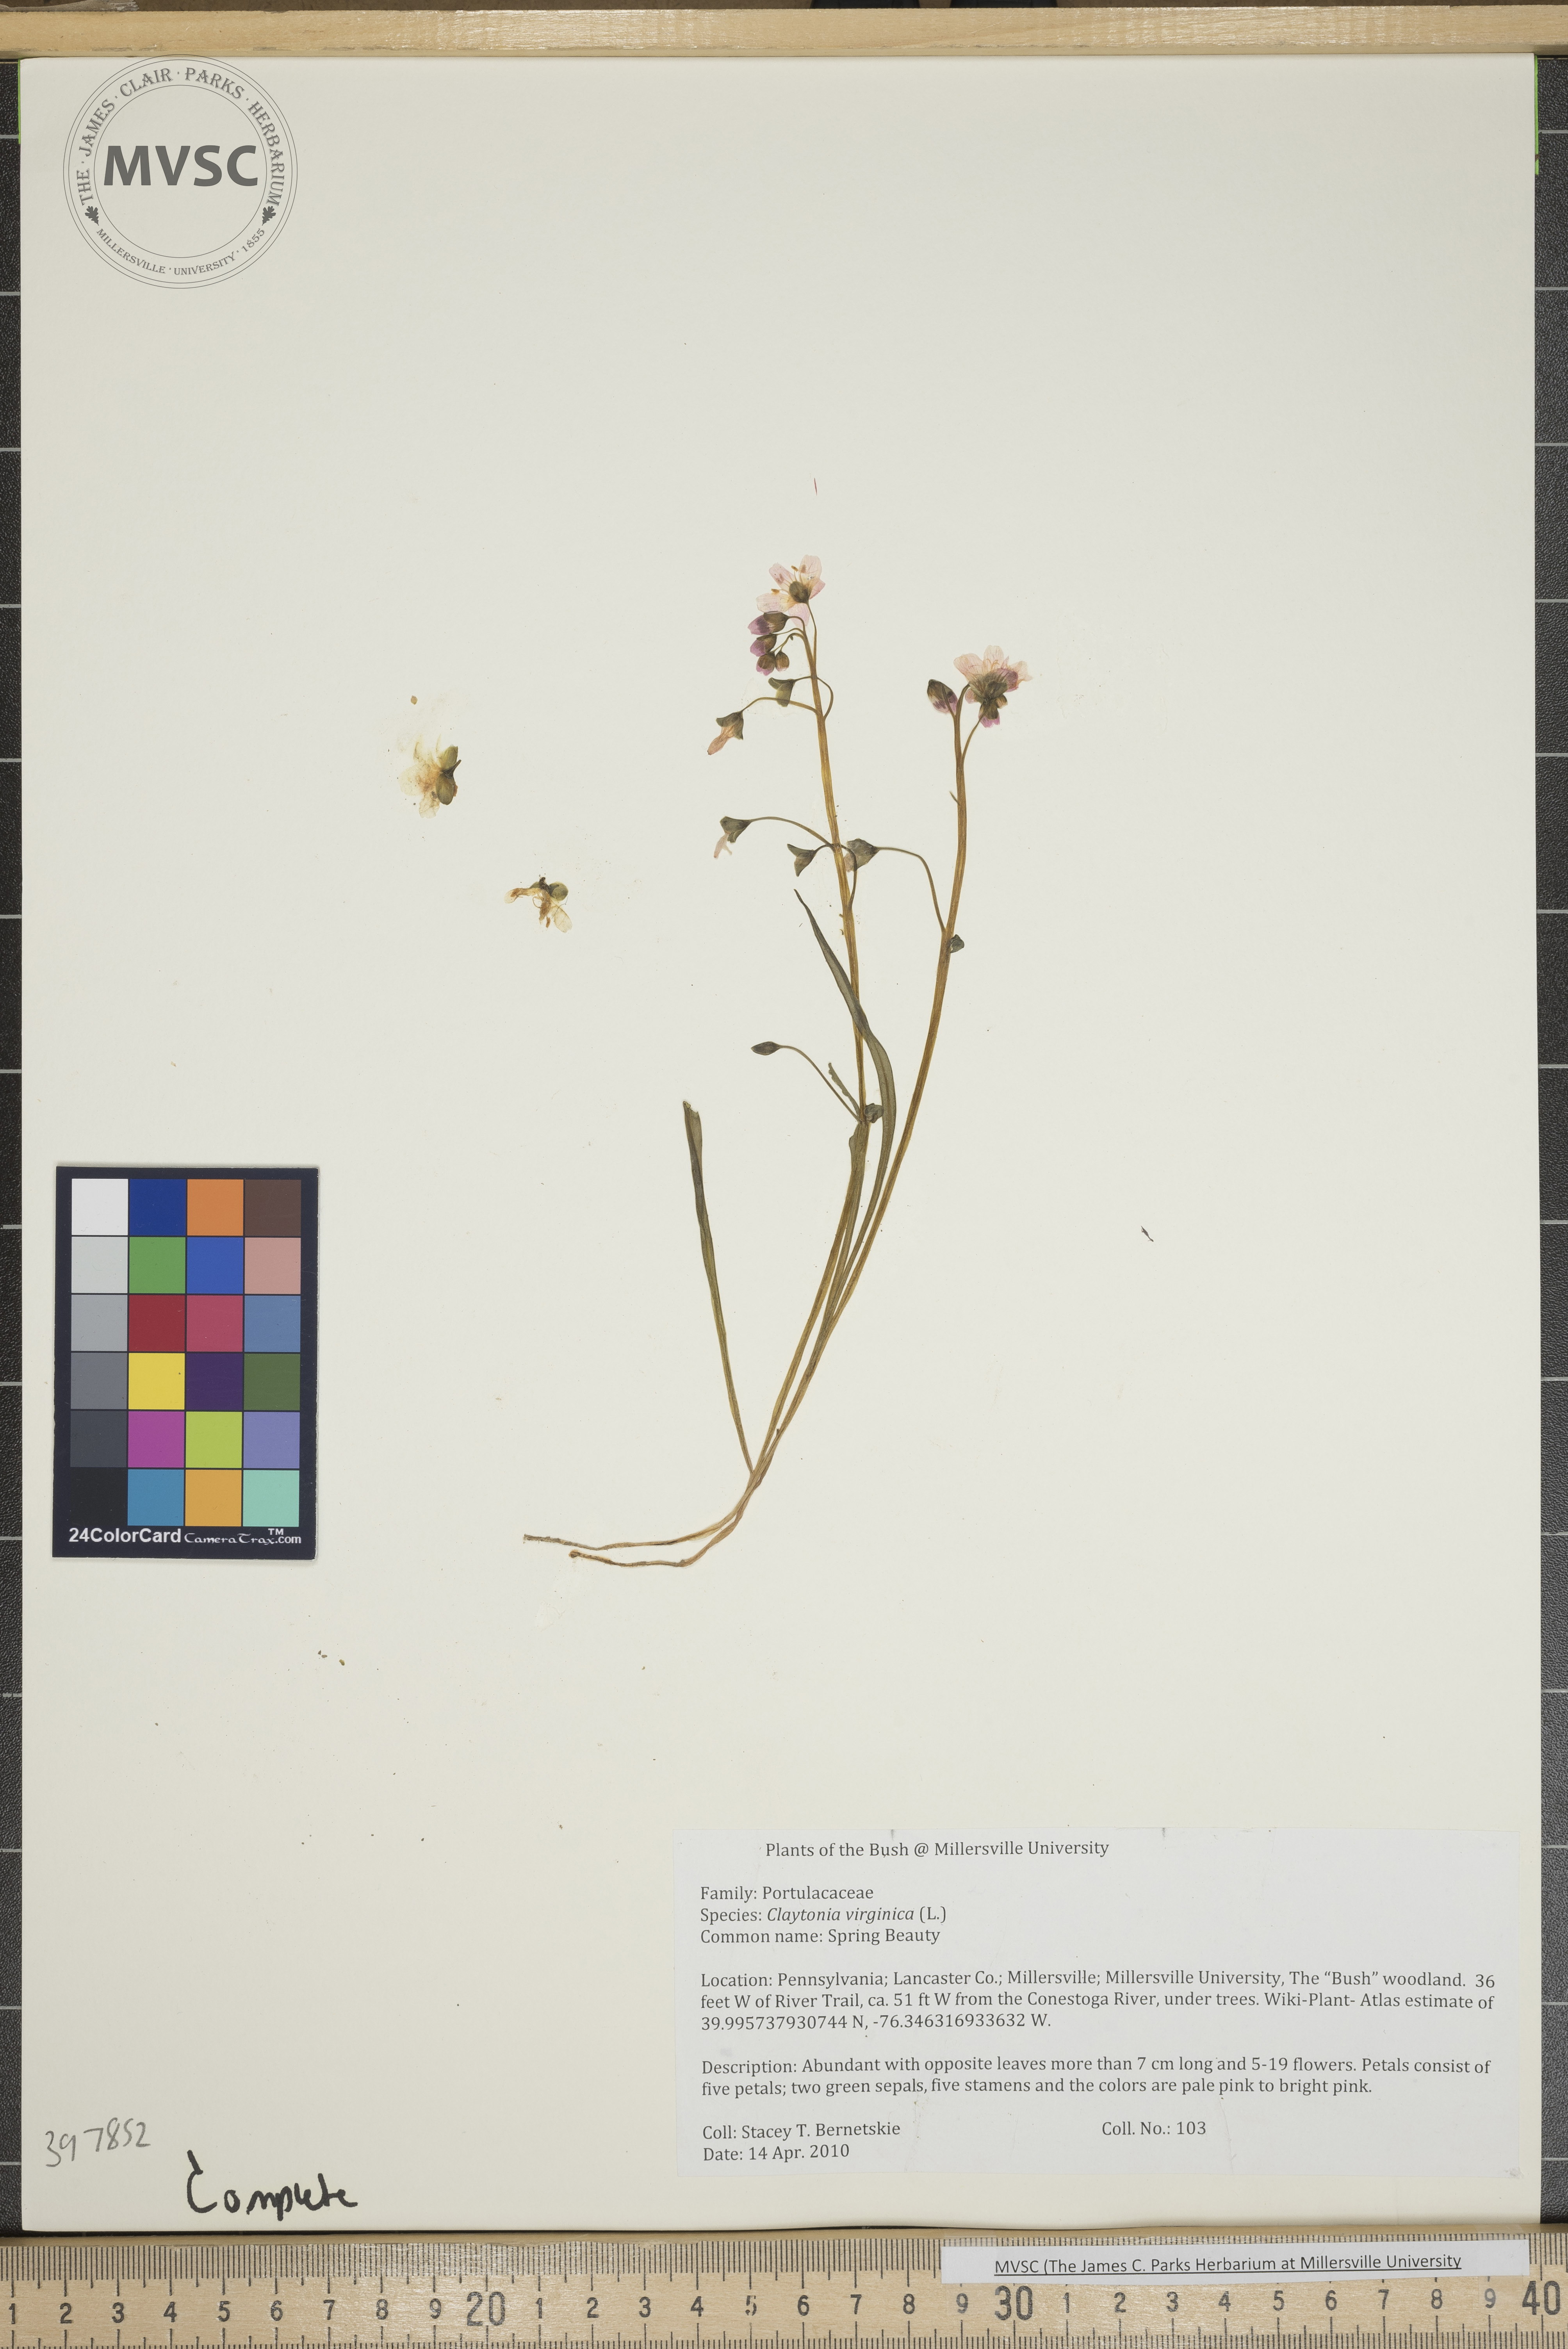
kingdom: Plantae
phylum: Tracheophyta
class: Magnoliopsida
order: Caryophyllales
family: Montiaceae
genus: Claytonia
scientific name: Claytonia virginica
